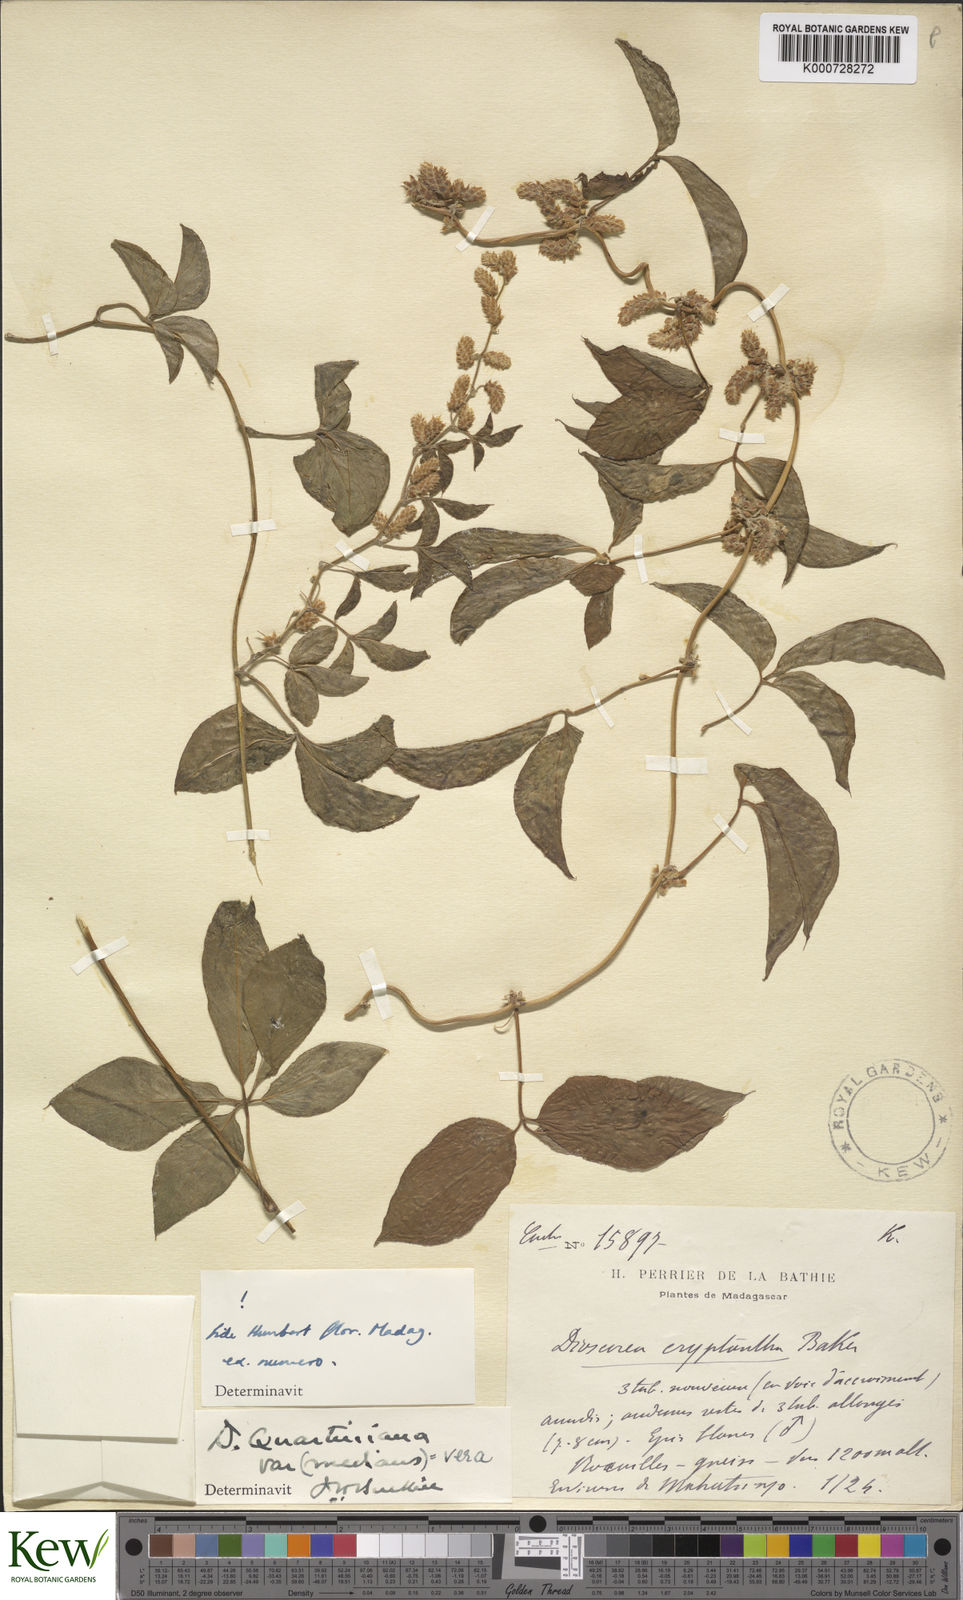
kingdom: Plantae
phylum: Tracheophyta
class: Liliopsida
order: Dioscoreales
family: Dioscoreaceae
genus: Dioscorea
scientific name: Dioscorea quartiniana
